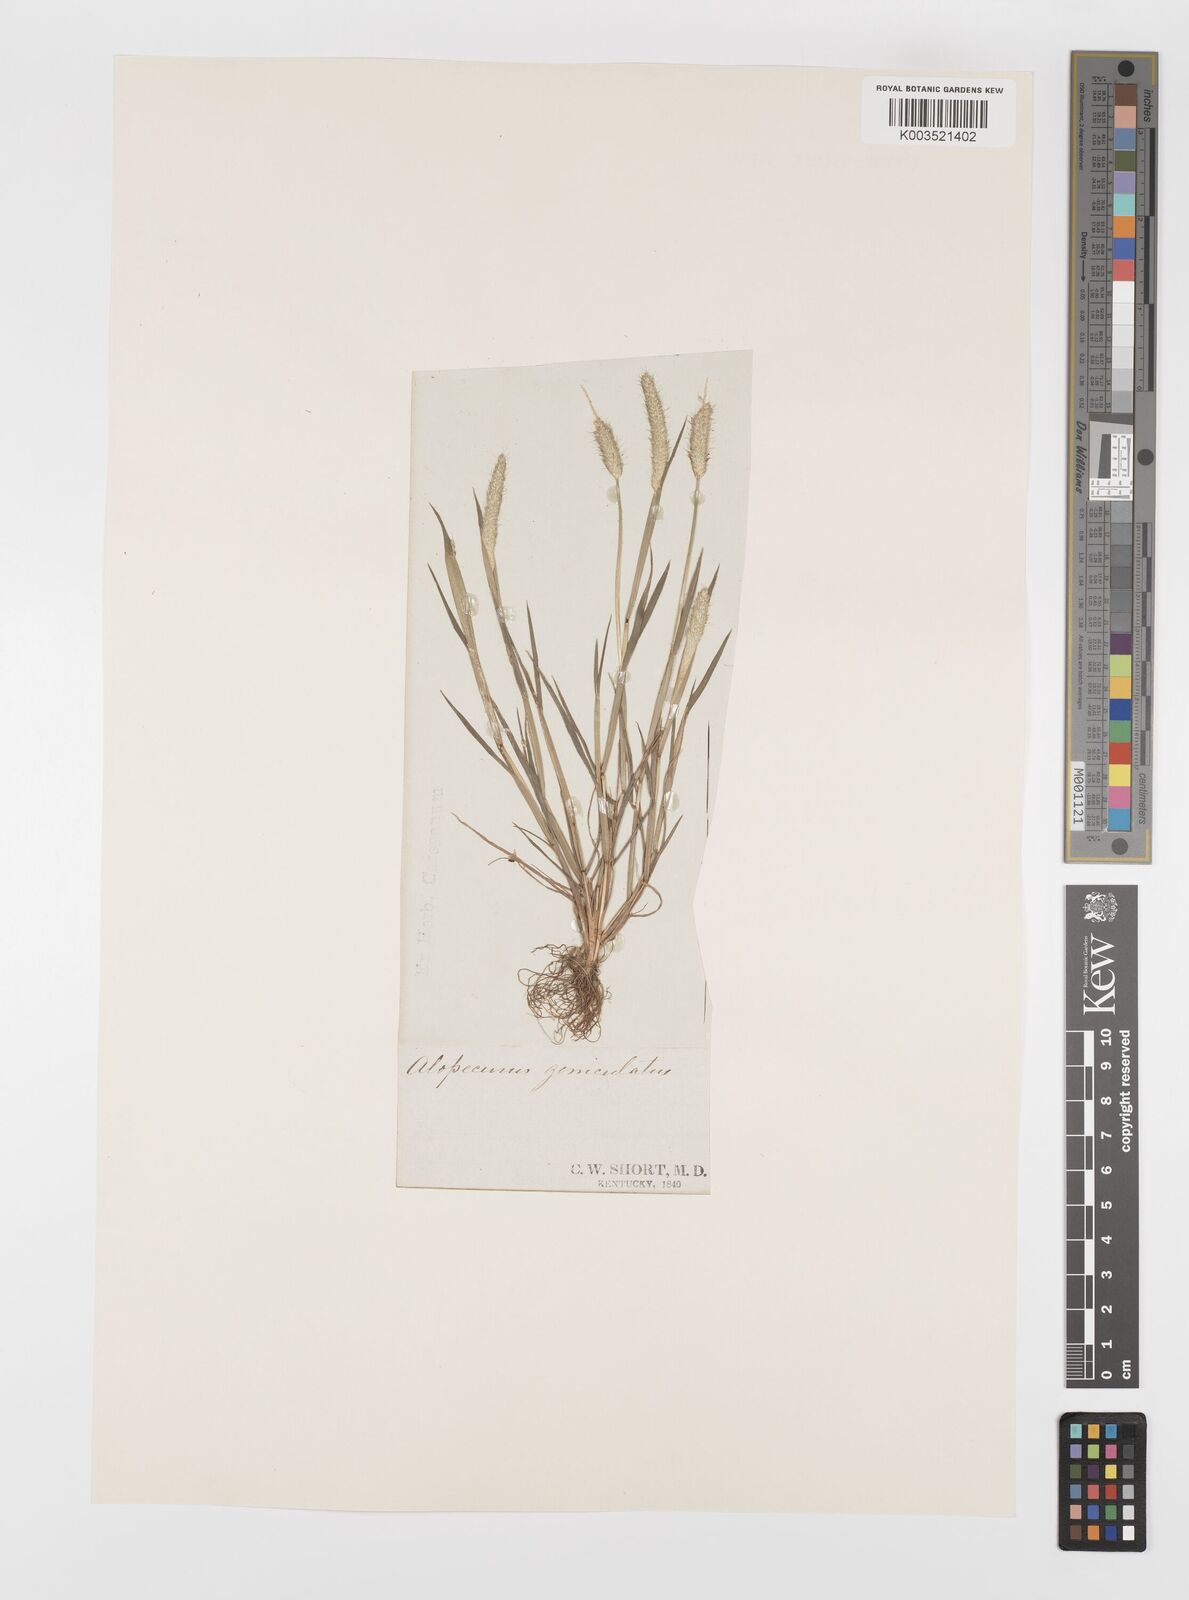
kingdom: Plantae
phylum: Tracheophyta
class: Liliopsida
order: Poales
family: Poaceae
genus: Alopecurus
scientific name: Alopecurus geniculatus
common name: Water foxtail
